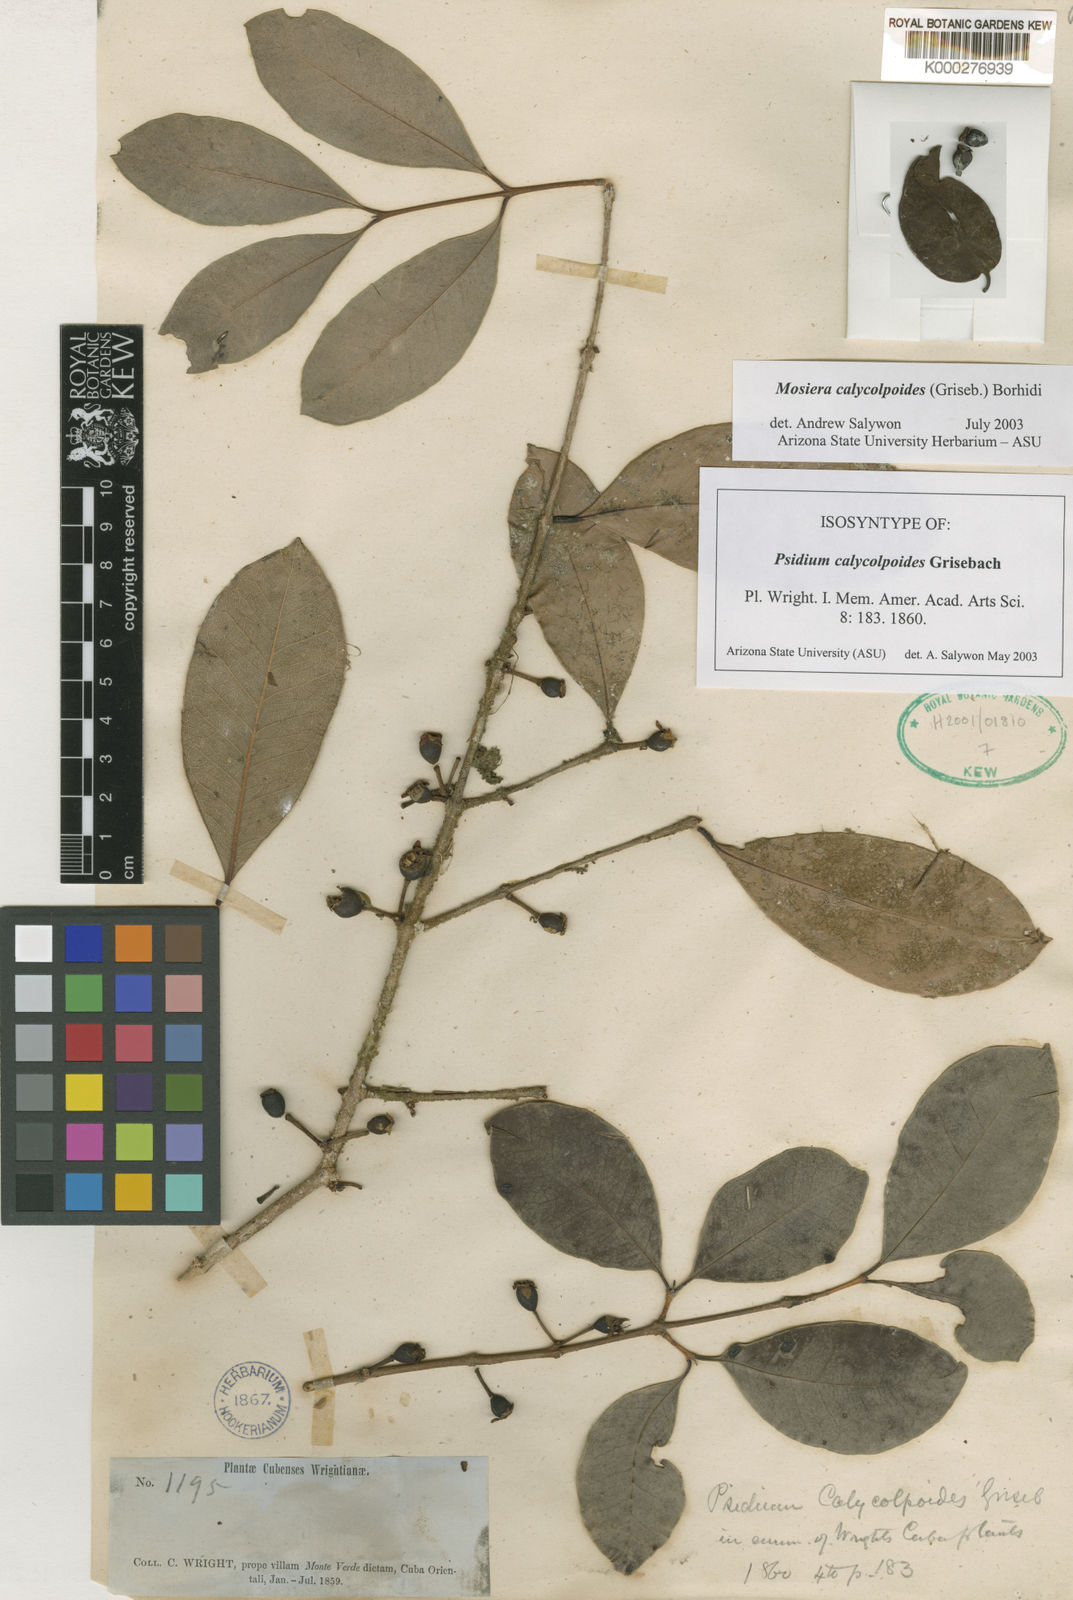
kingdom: Plantae
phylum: Tracheophyta
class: Magnoliopsida
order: Myrtales
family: Myrtaceae
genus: Mosiera
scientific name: Mosiera calycolpoides
